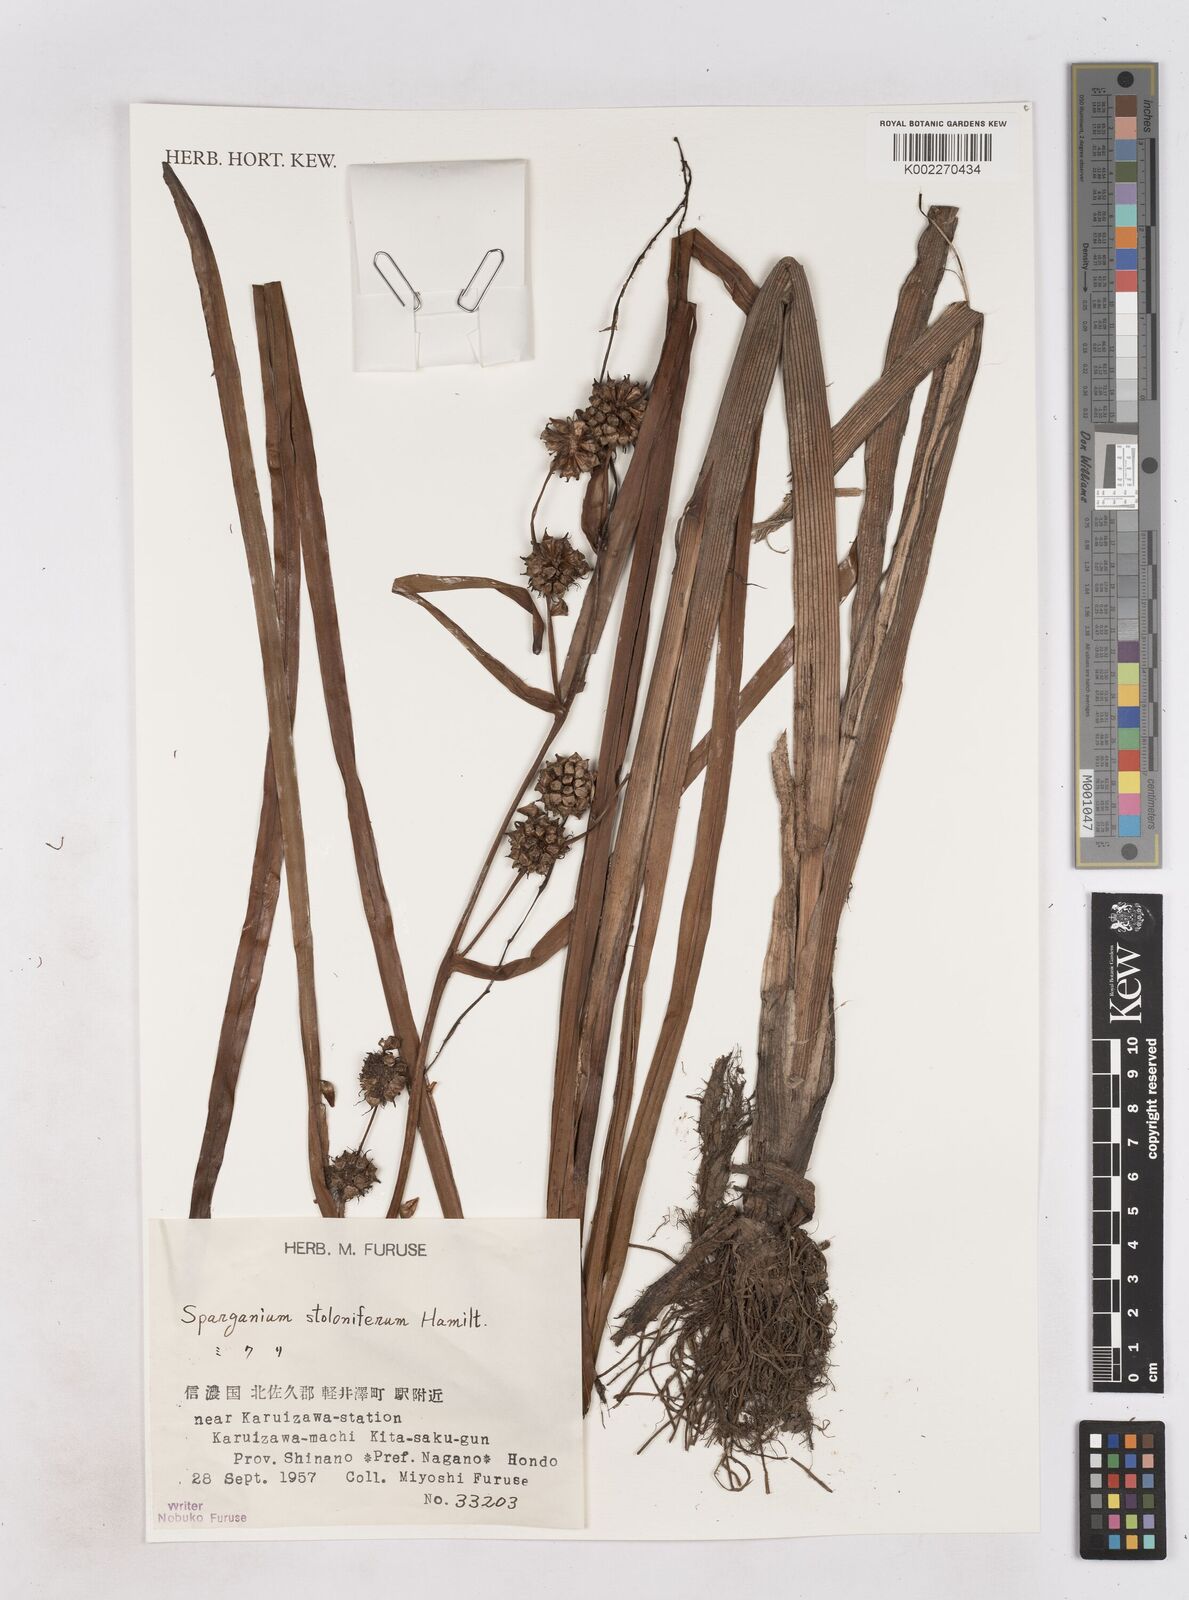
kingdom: Plantae
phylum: Tracheophyta
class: Liliopsida
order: Poales
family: Typhaceae
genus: Sparganium
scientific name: Sparganium stoloniferum
